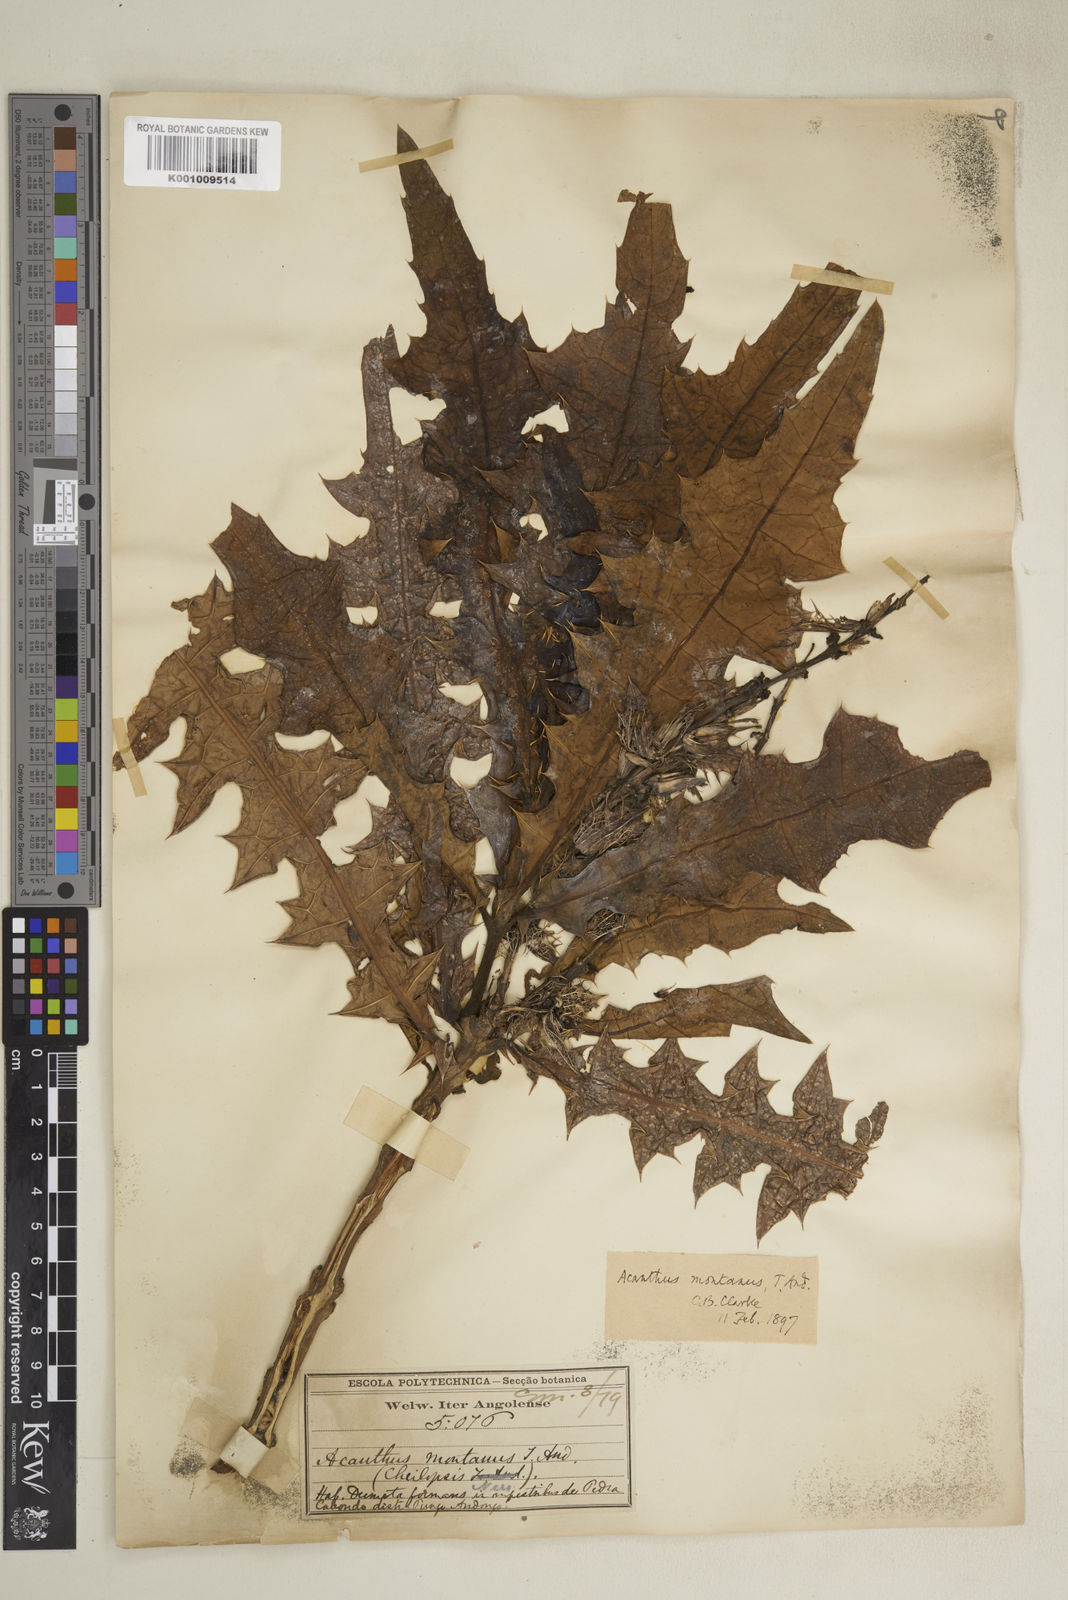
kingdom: Plantae
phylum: Tracheophyta
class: Magnoliopsida
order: Lamiales
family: Acanthaceae
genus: Acanthus
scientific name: Acanthus montanus
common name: Mountain thistle
